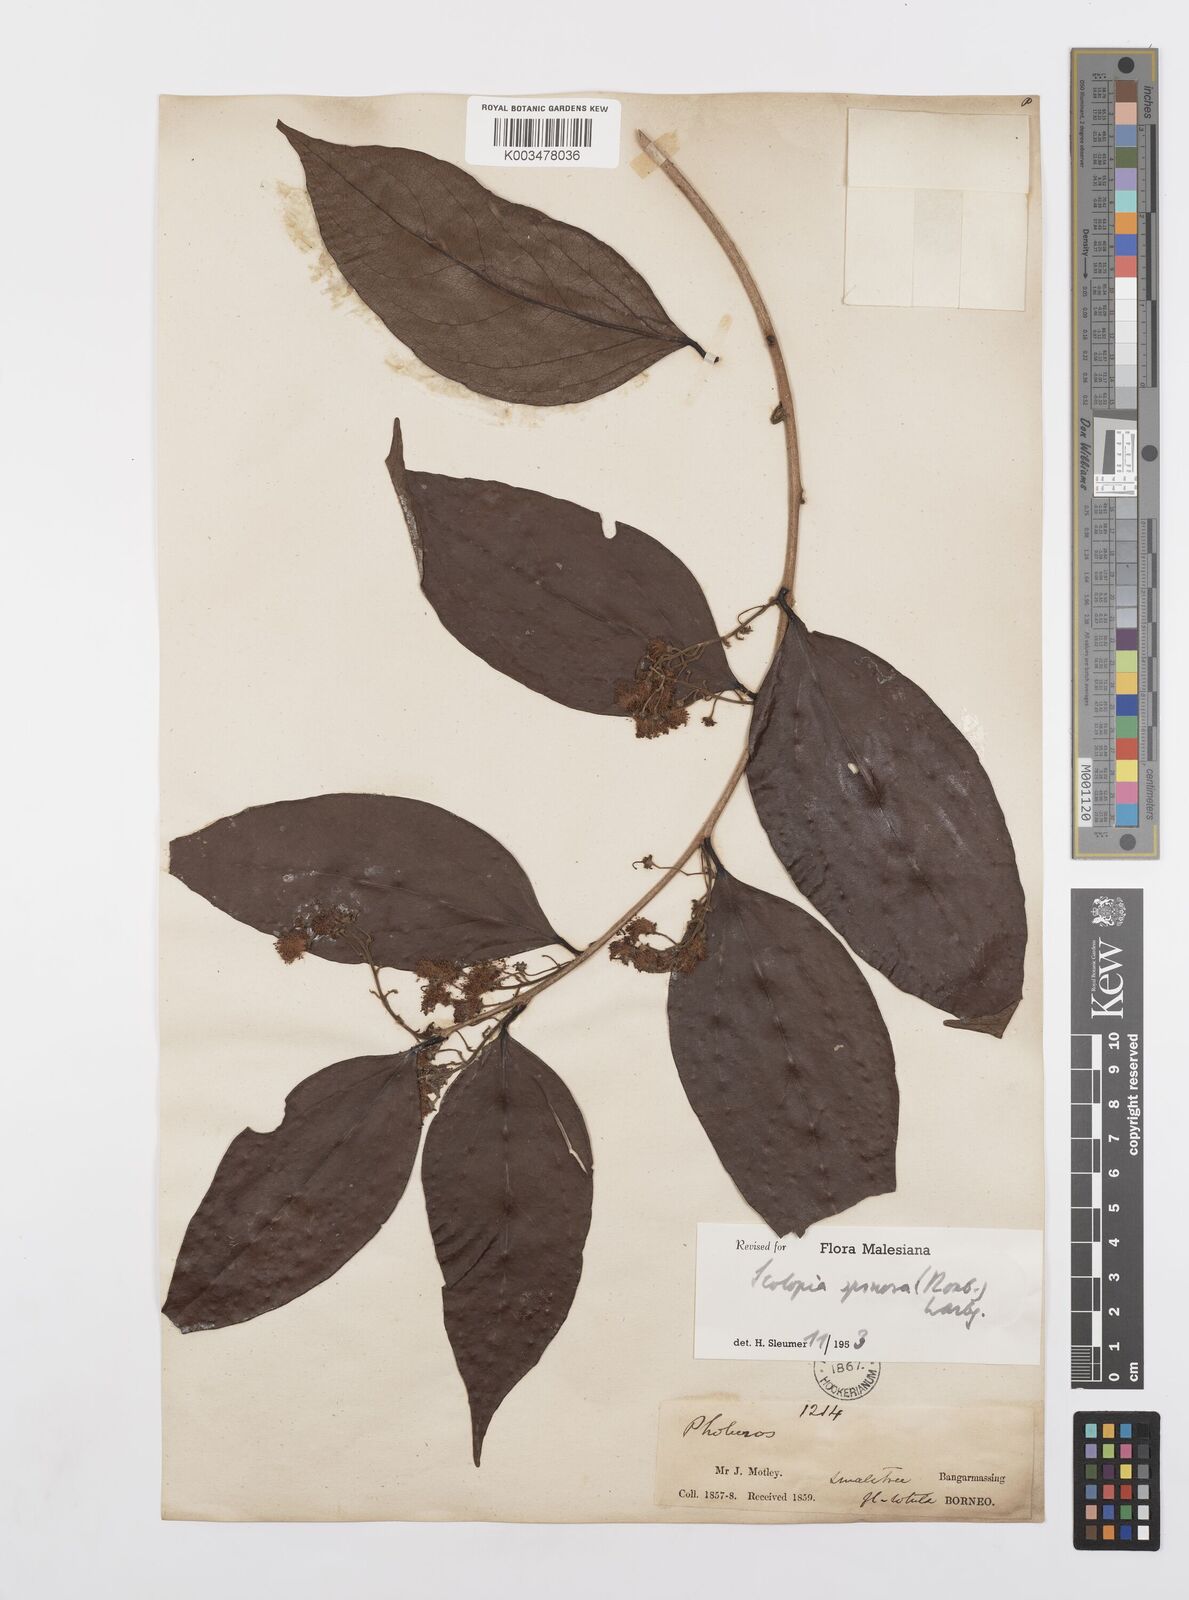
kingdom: Plantae
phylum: Tracheophyta
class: Magnoliopsida
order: Malpighiales
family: Salicaceae
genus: Scolopia
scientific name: Scolopia spinosa
